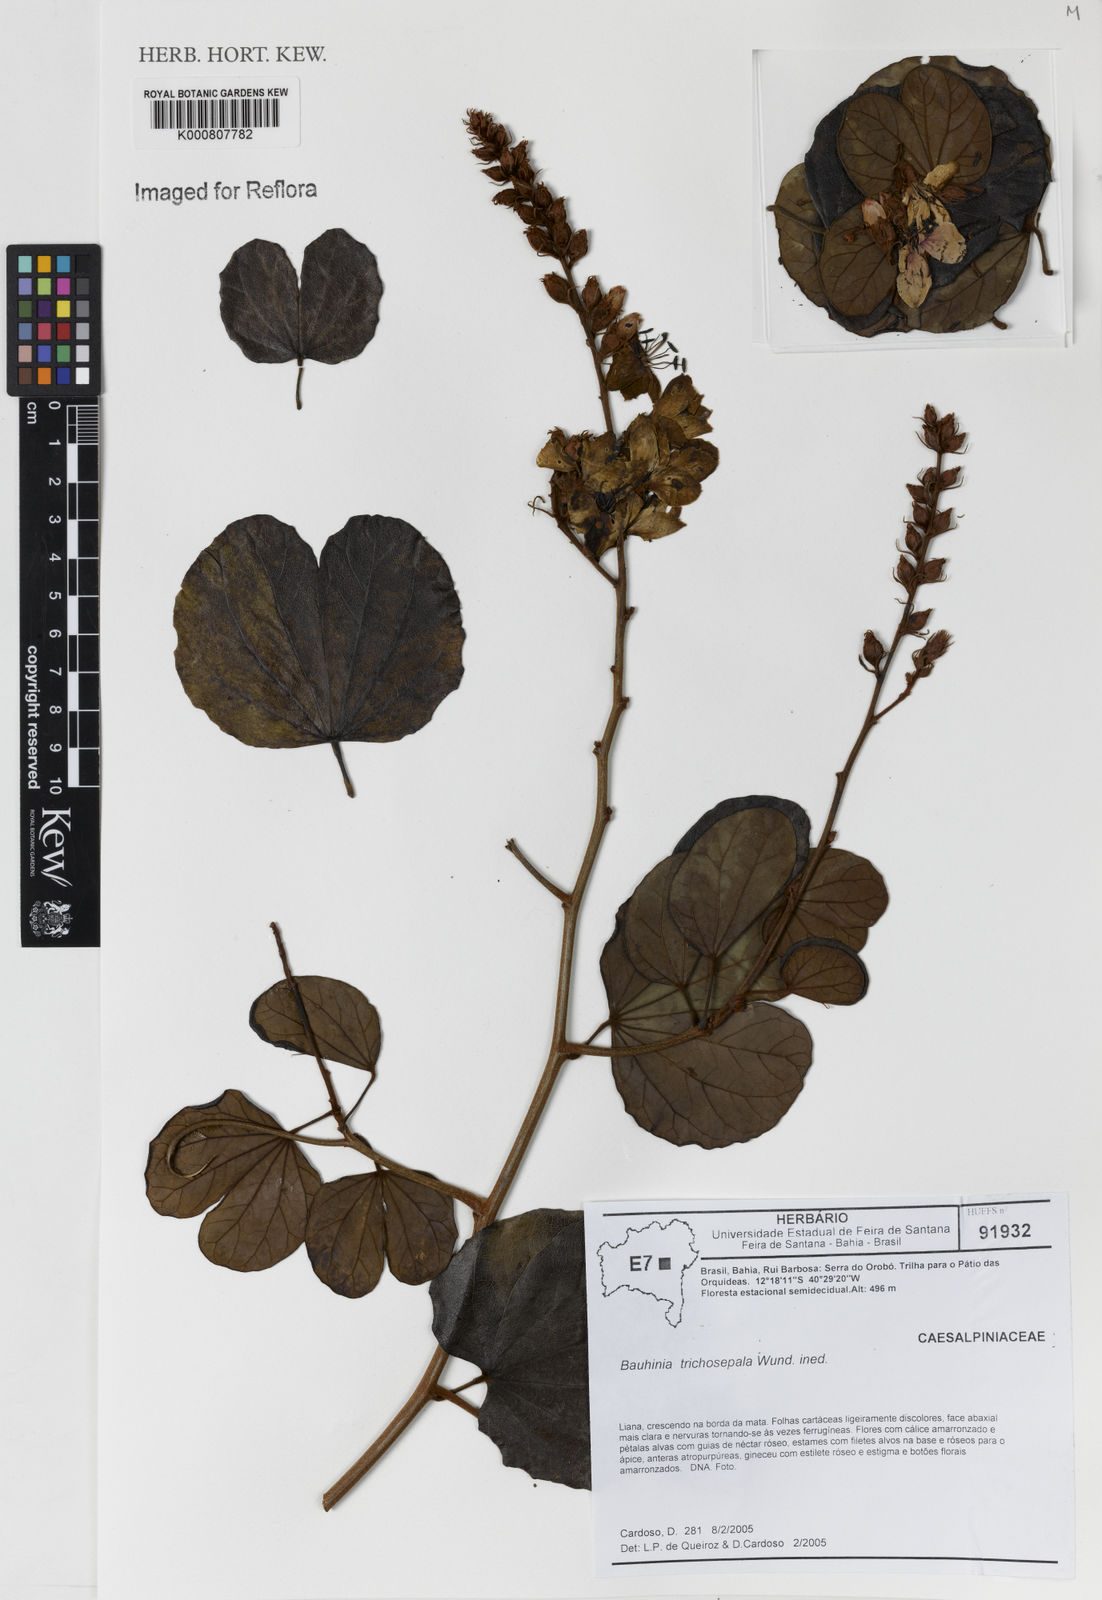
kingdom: Plantae
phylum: Tracheophyta
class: Magnoliopsida
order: Fabales
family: Fabaceae
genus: Schnella
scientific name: Schnella trichosepala
